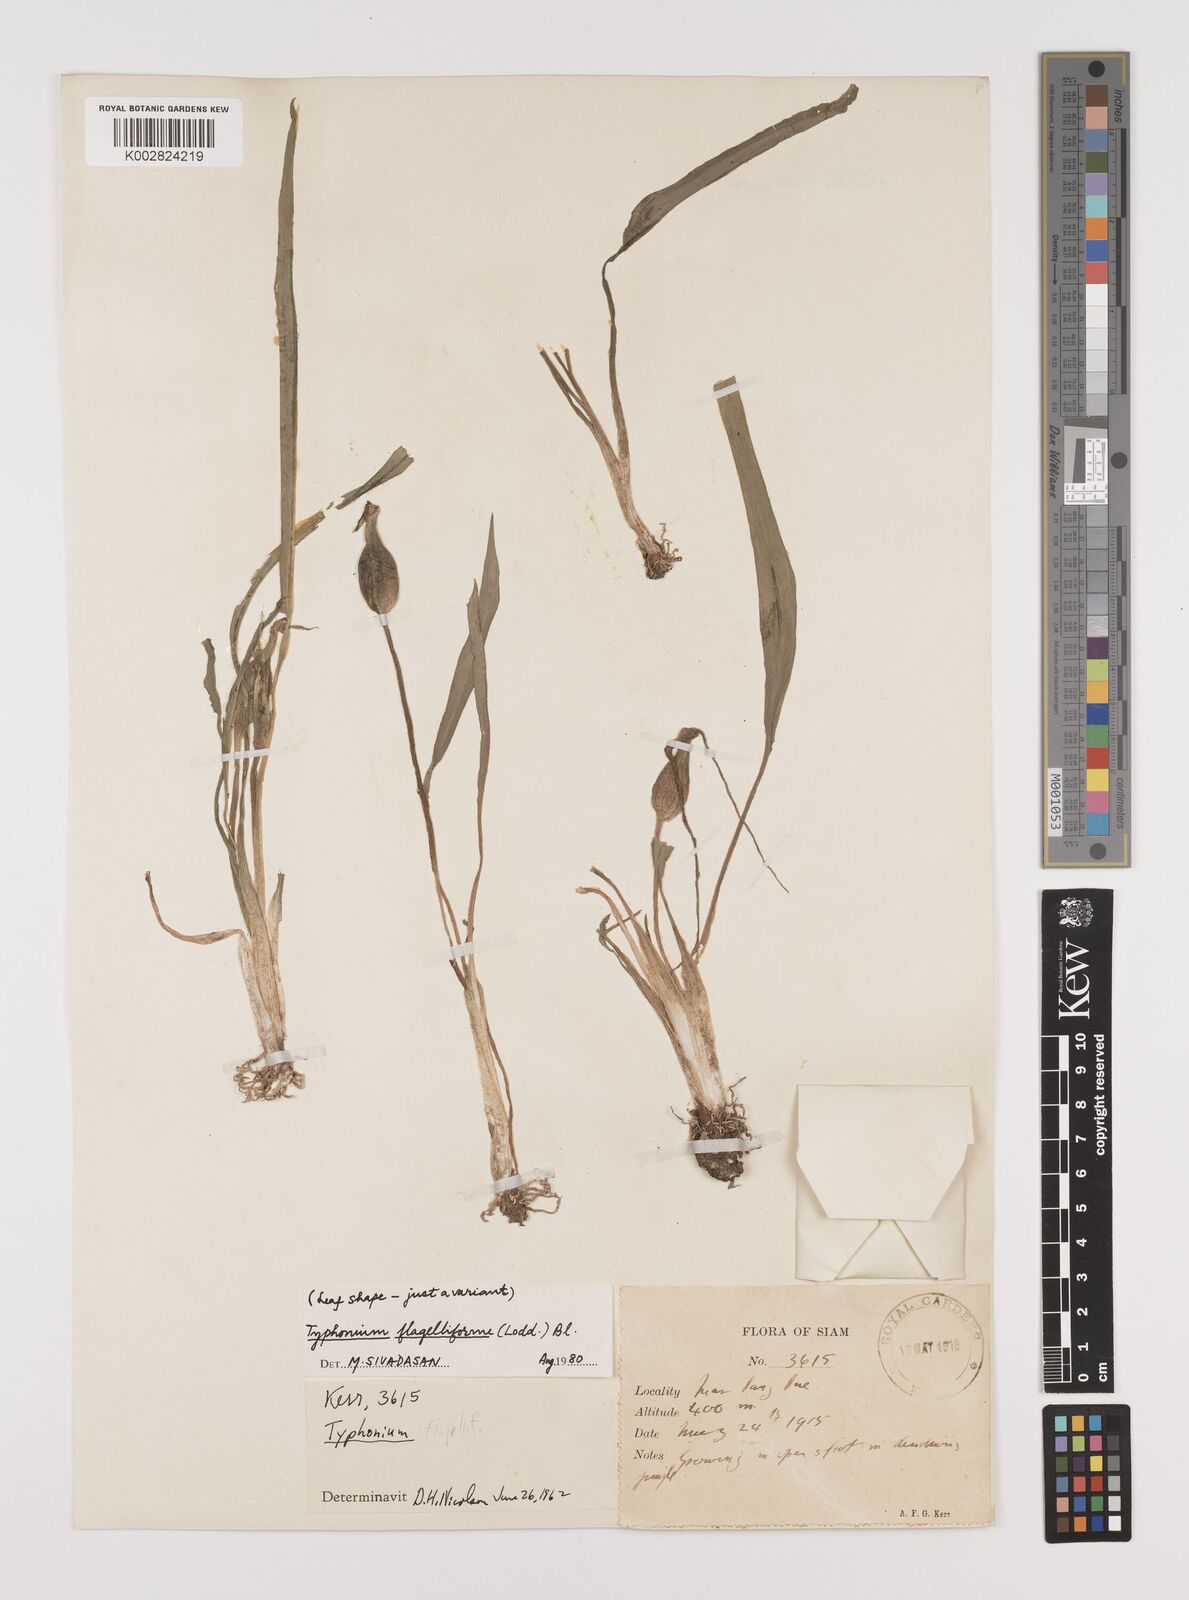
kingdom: Plantae
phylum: Tracheophyta
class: Liliopsida
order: Alismatales
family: Araceae
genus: Typhonium
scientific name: Typhonium flagelliforme
